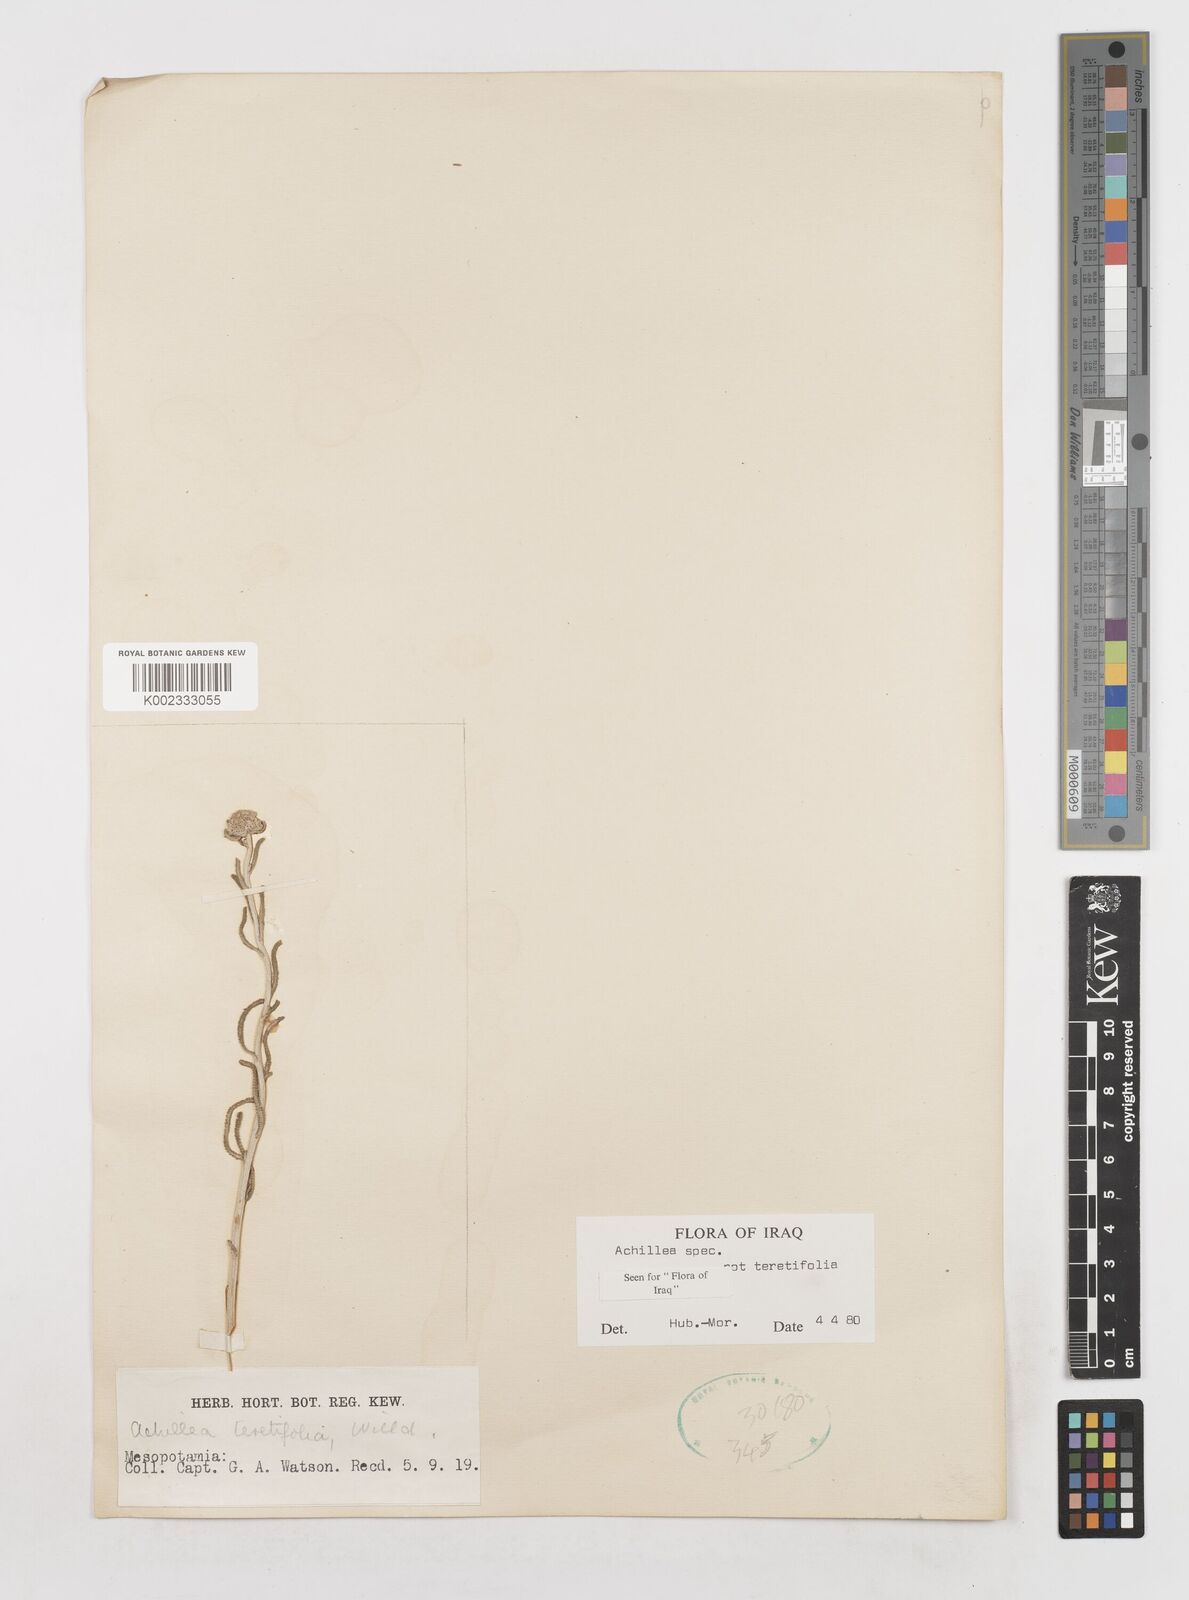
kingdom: Plantae
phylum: Tracheophyta
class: Magnoliopsida
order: Asterales
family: Asteraceae
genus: Achillea
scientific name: Achillea
